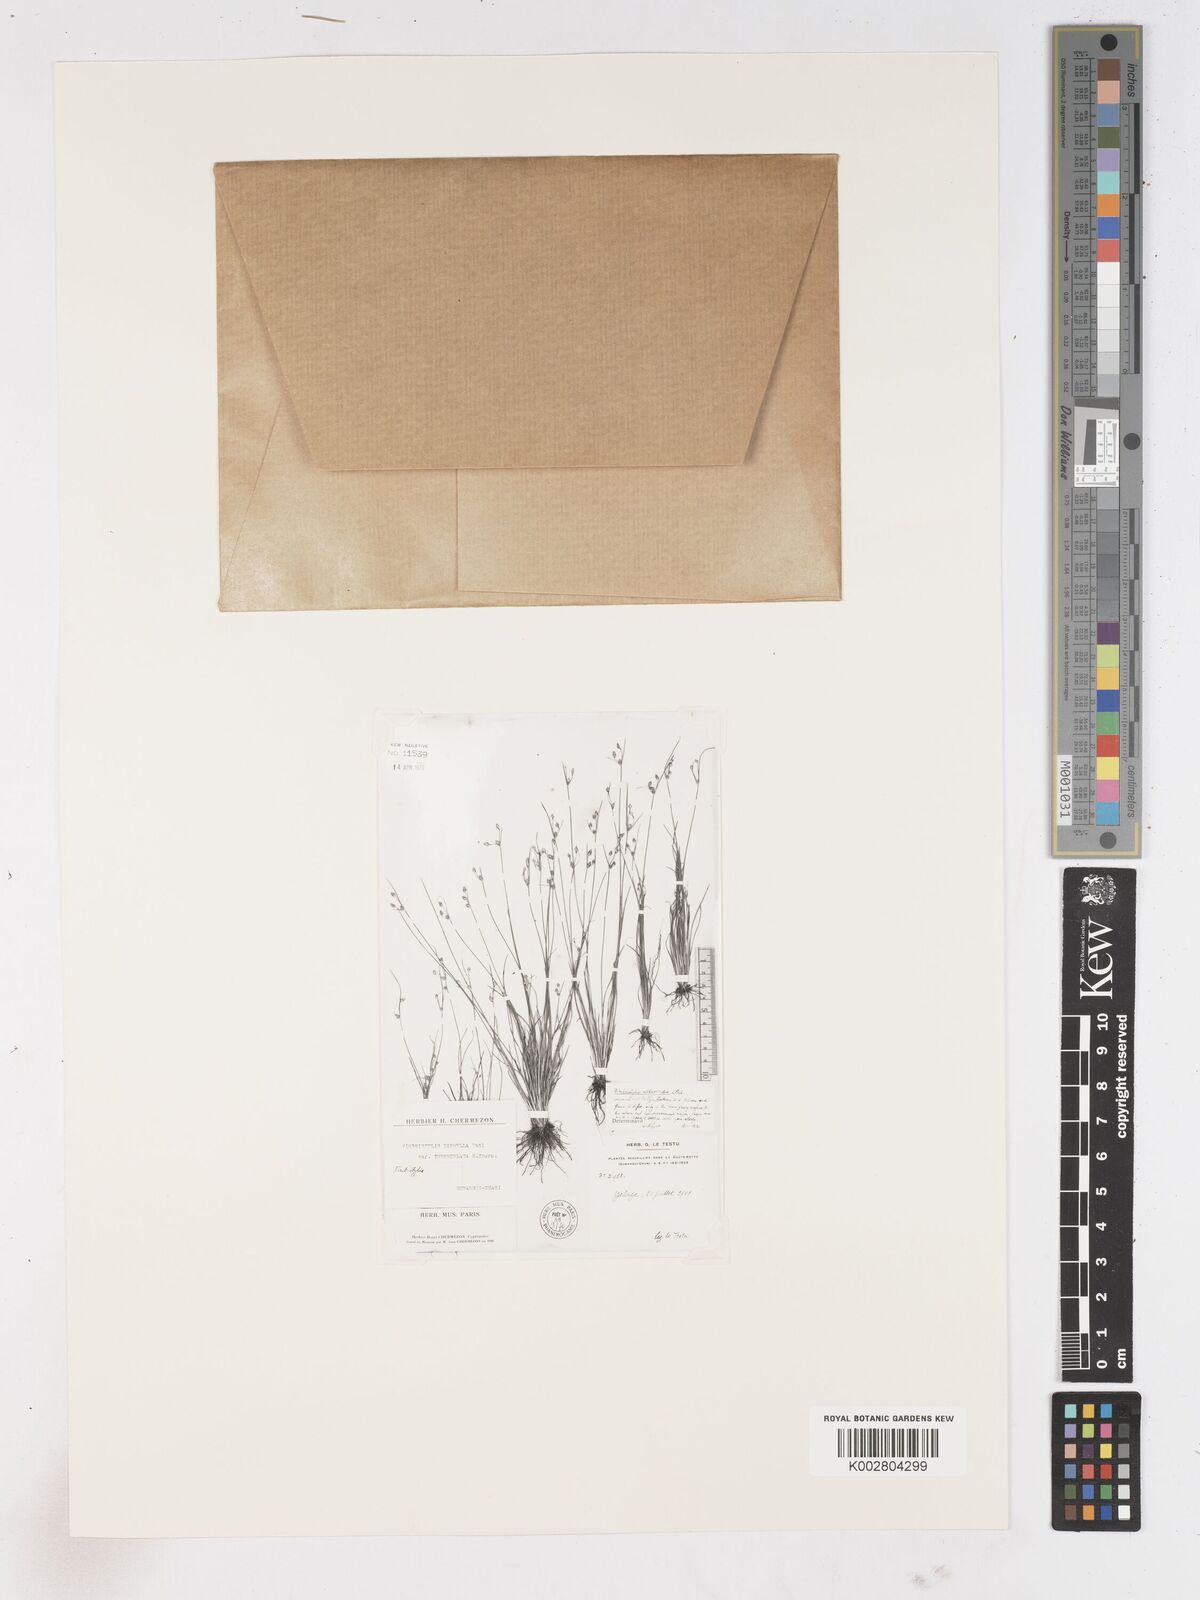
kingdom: Plantae
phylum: Tracheophyta
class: Liliopsida
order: Poales
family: Cyperaceae
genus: Fimbristylis
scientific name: Fimbristylis alboviridis
